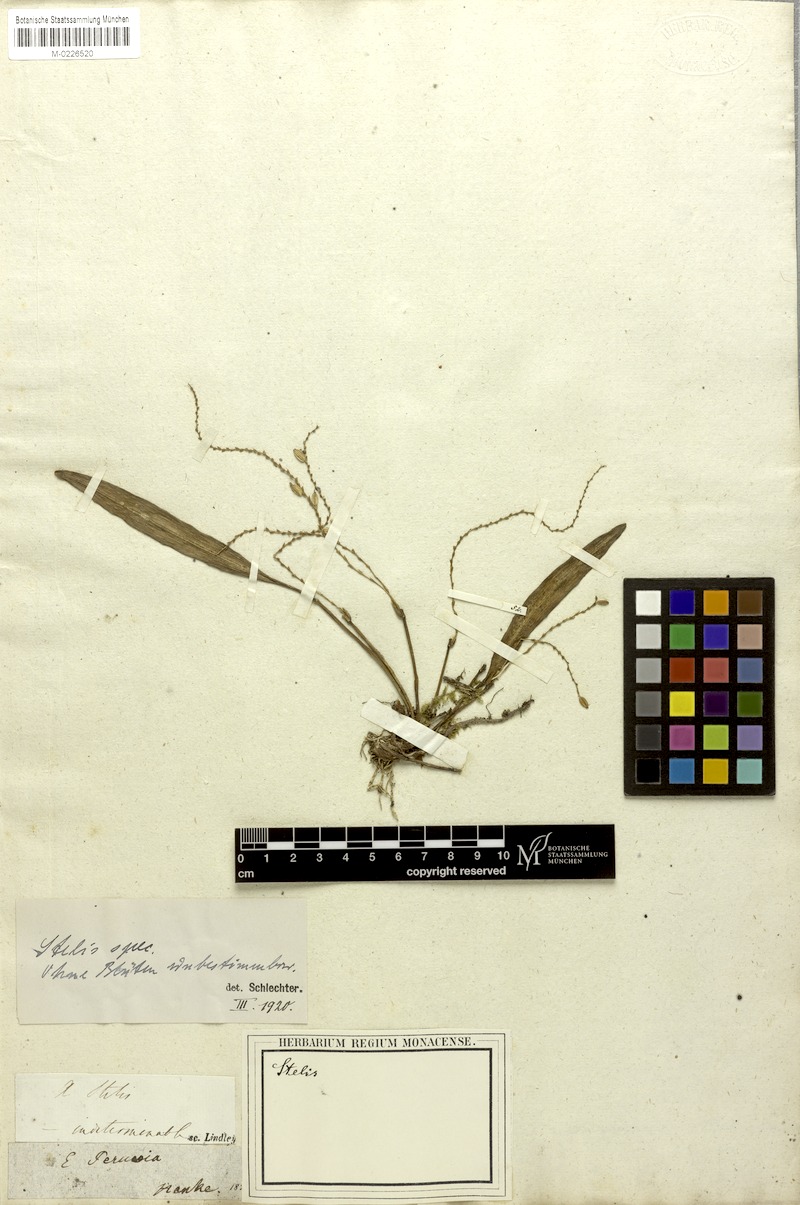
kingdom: Plantae
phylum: Tracheophyta
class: Liliopsida
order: Asparagales
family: Orchidaceae
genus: Stelis
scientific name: Stelis
